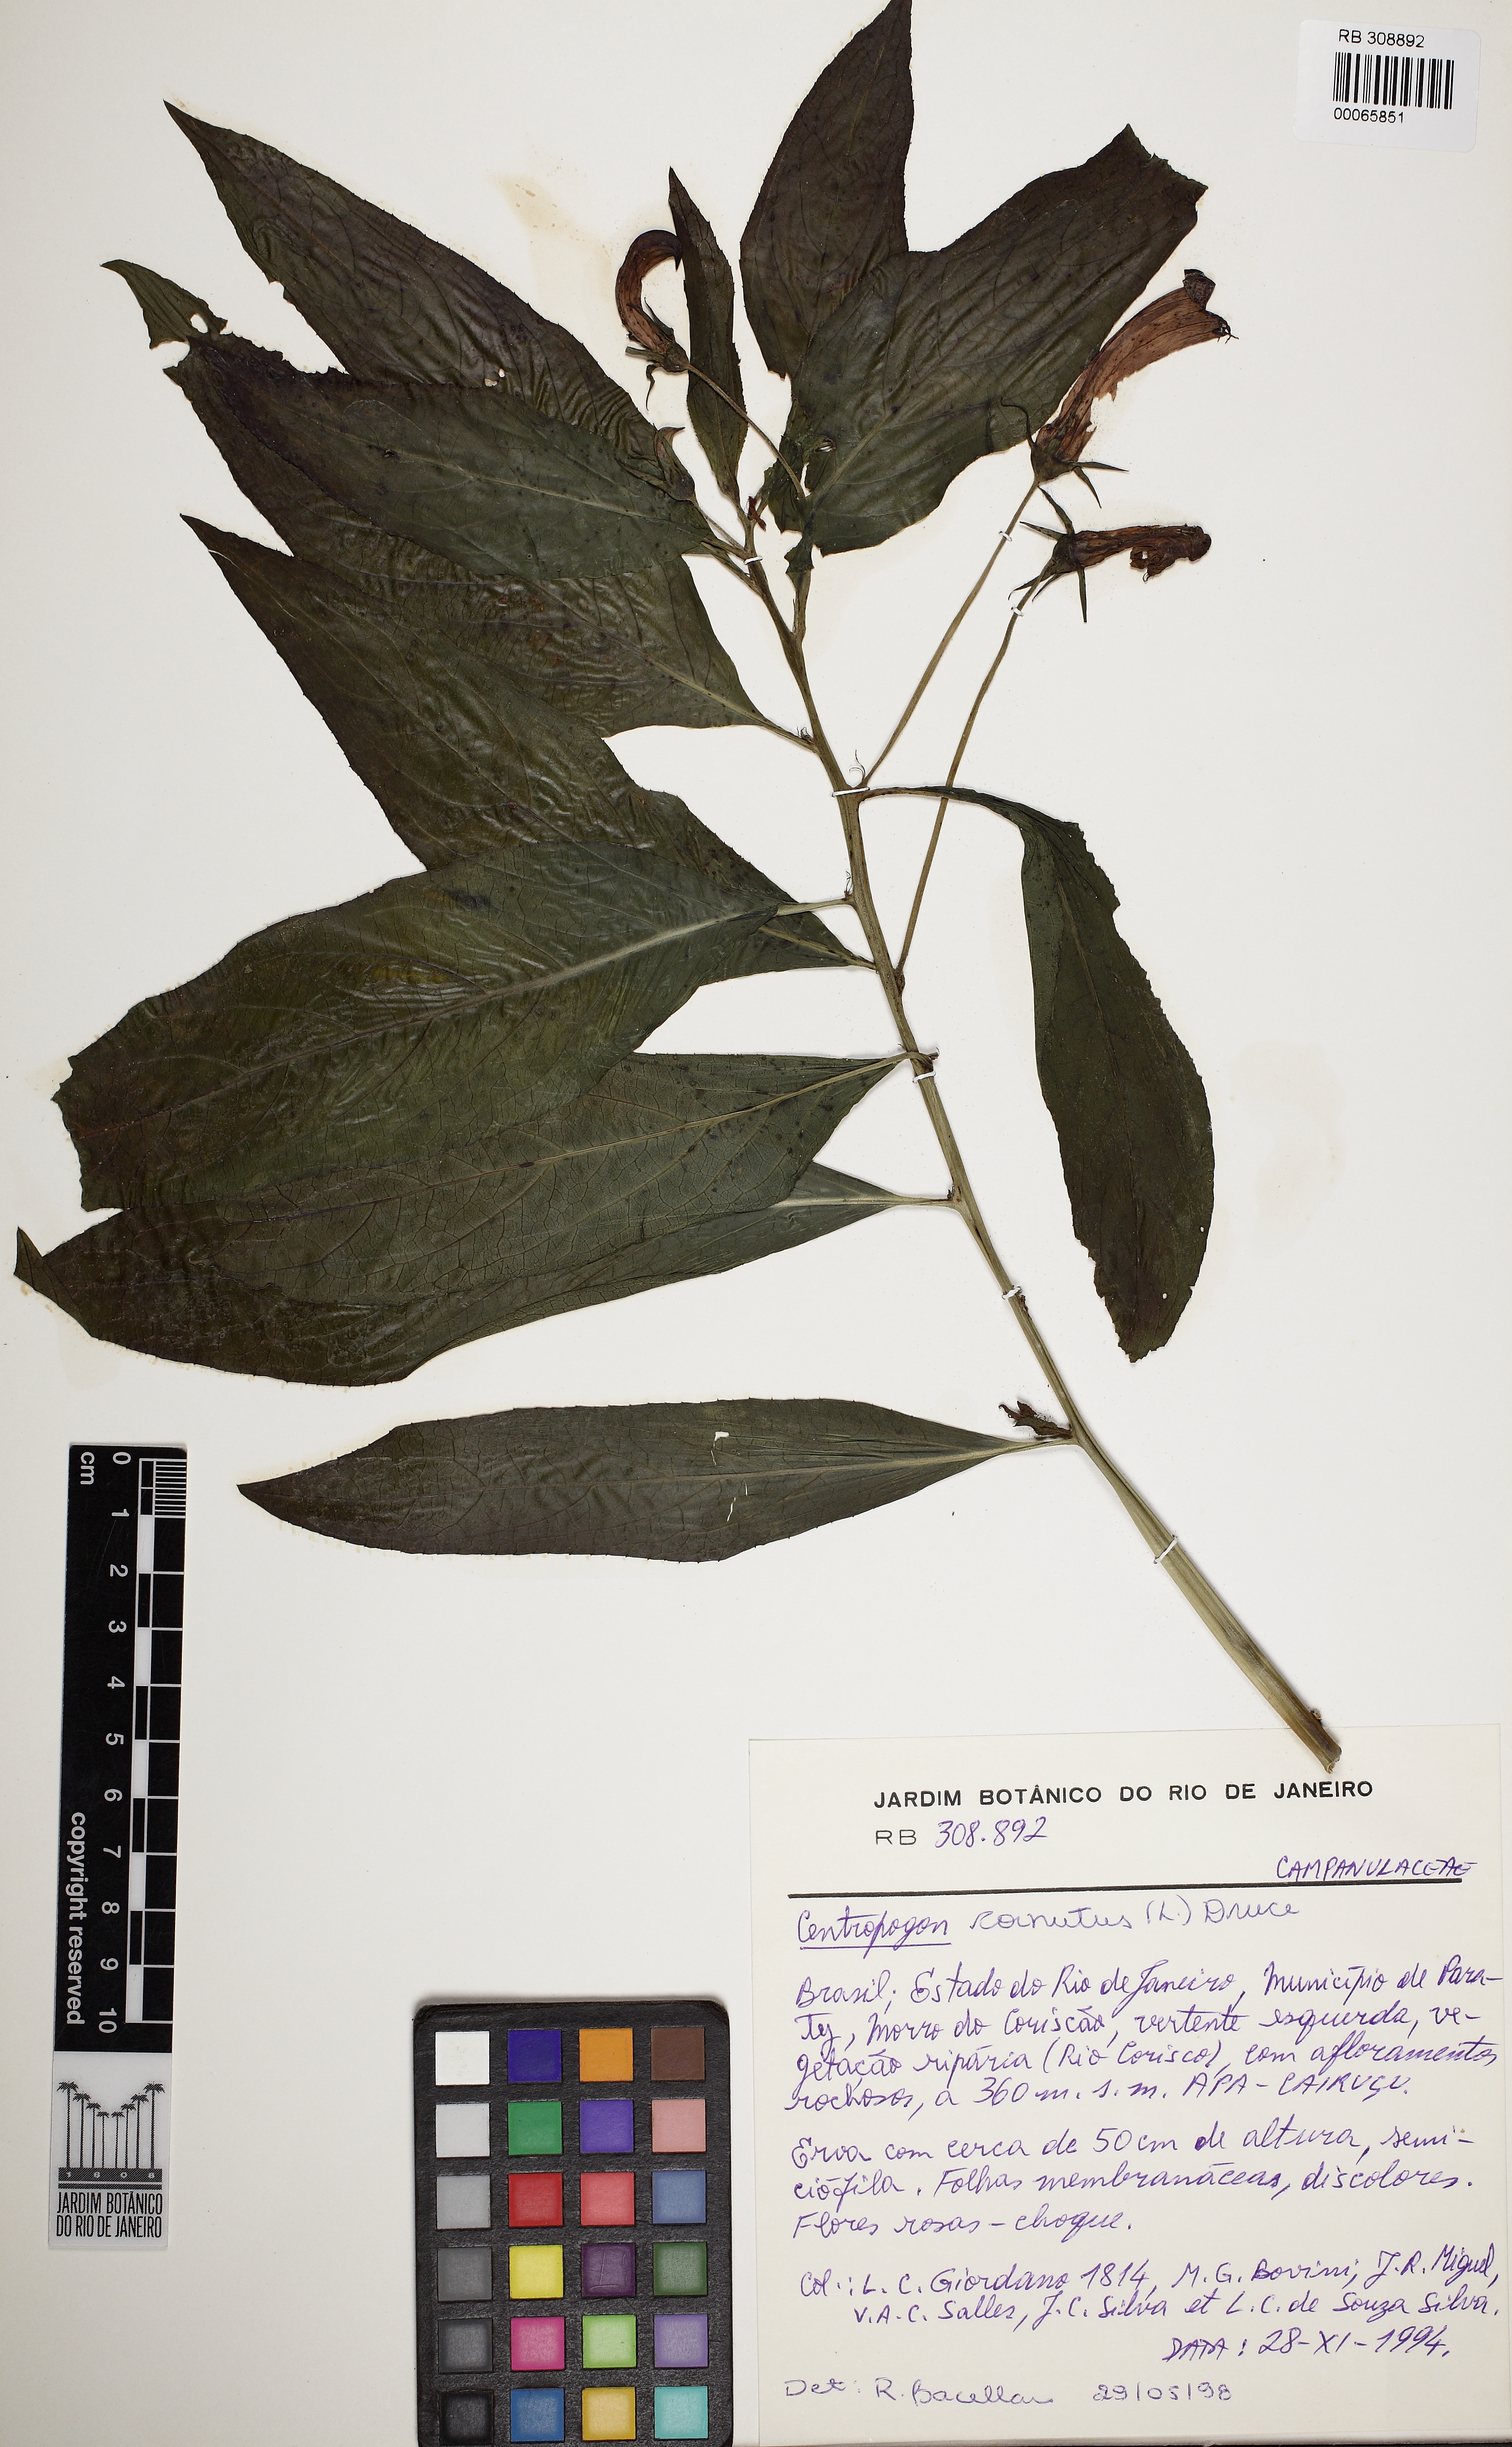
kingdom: Plantae
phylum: Tracheophyta
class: Magnoliopsida
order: Asterales
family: Campanulaceae
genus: Centropogon
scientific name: Centropogon cornutus
